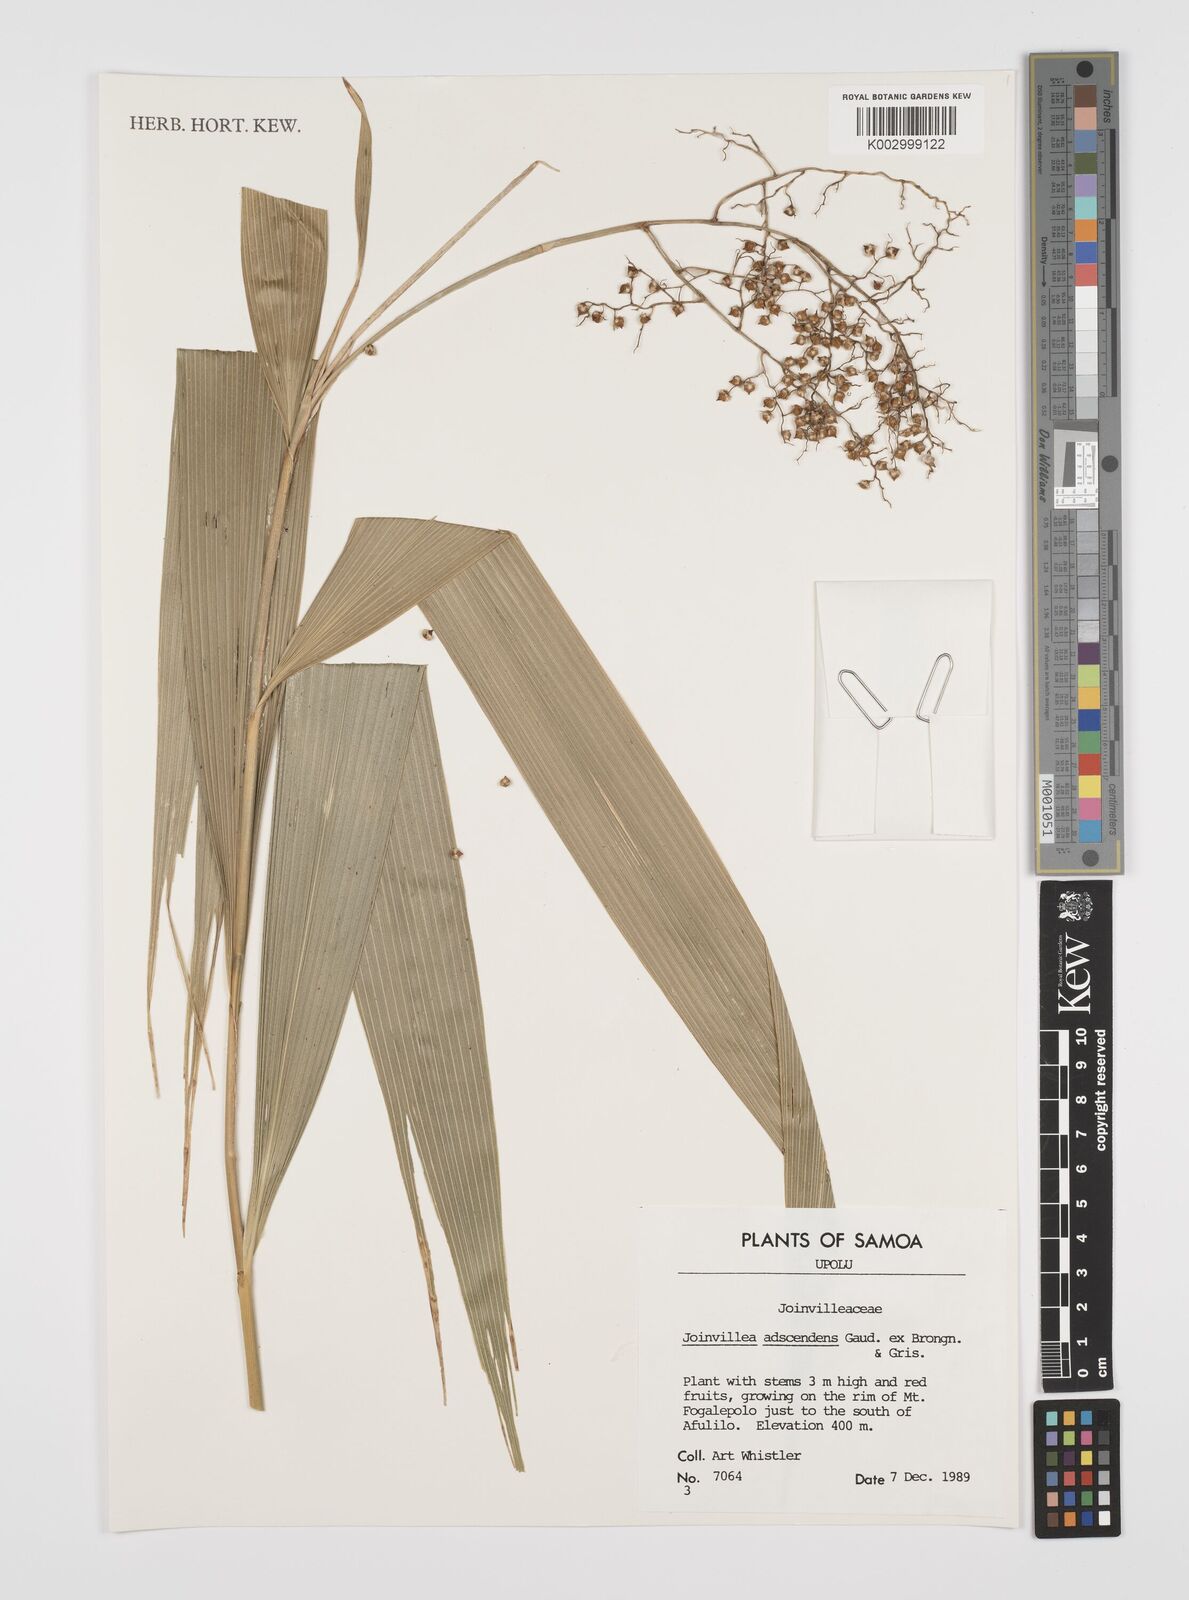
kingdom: Plantae
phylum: Tracheophyta
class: Liliopsida
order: Poales
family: Joinvilleaceae
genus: Joinvillea
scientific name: Joinvillea ascendens
